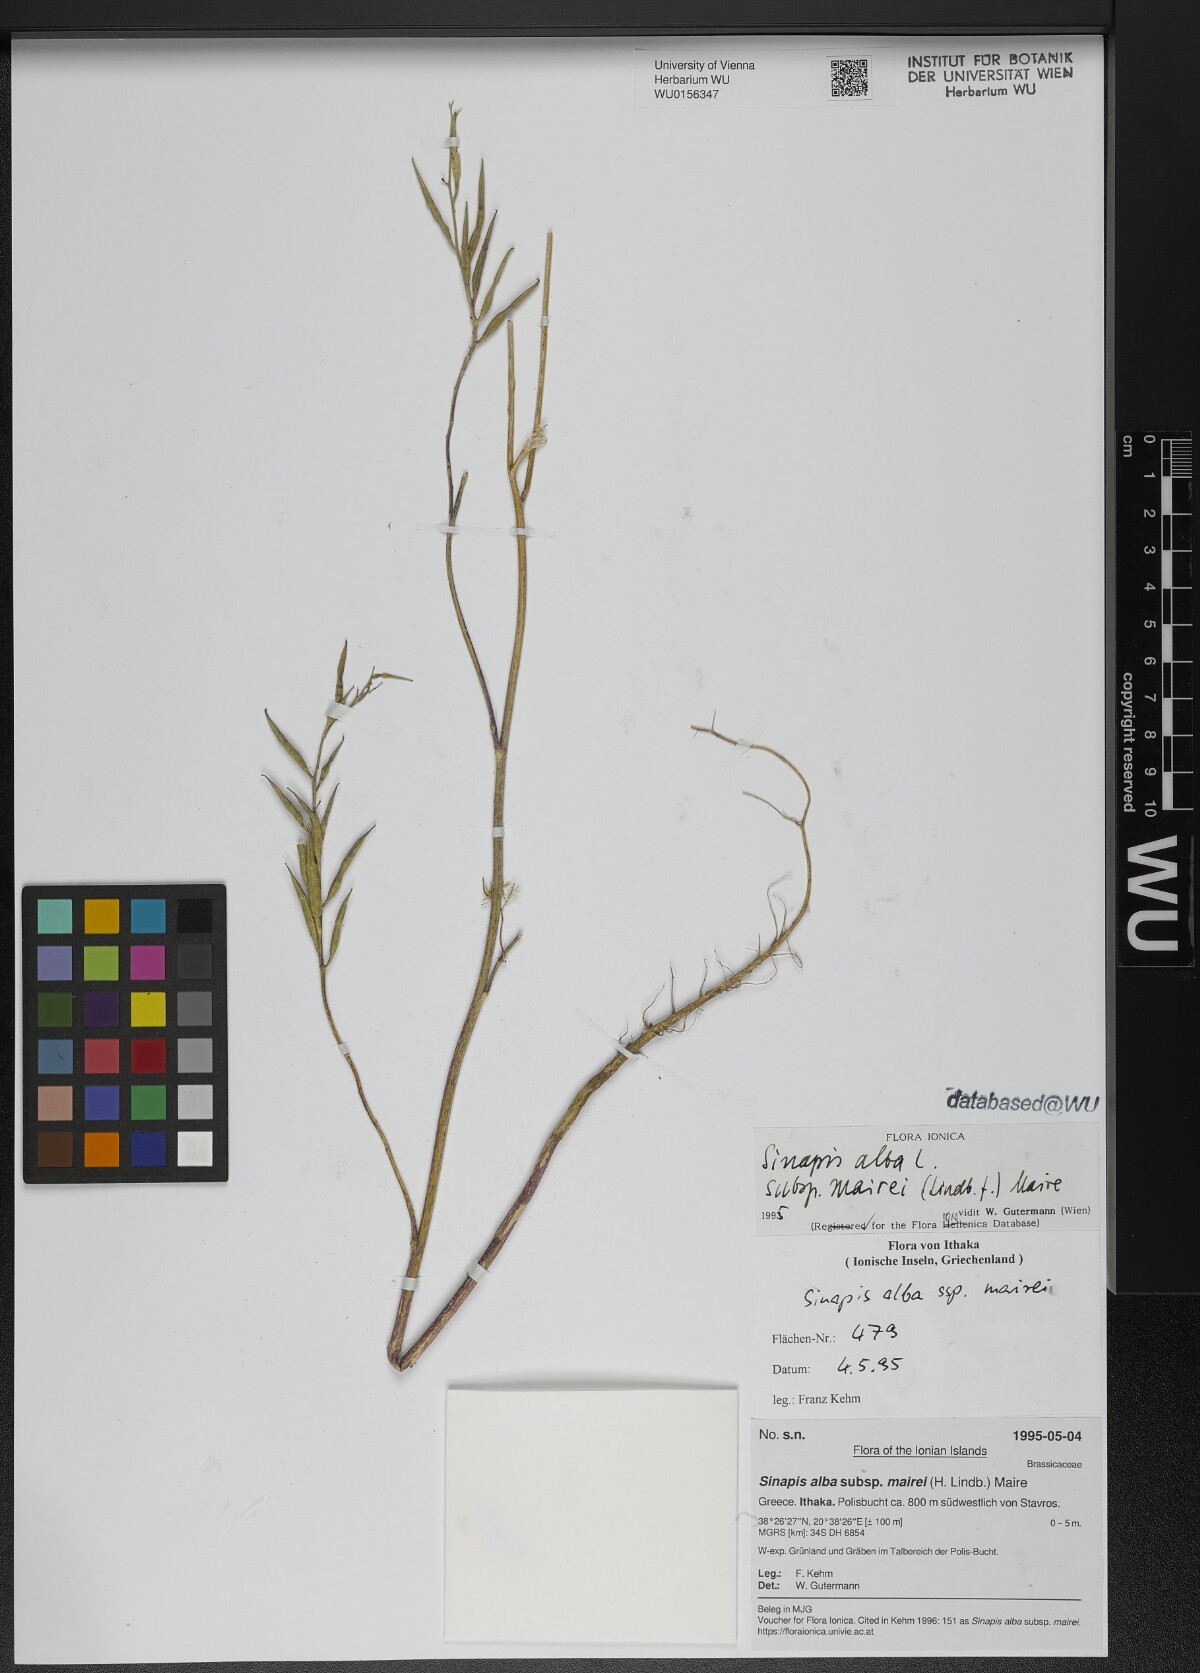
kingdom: Plantae
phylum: Tracheophyta
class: Magnoliopsida
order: Brassicales
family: Brassicaceae
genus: Sinapis
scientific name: Sinapis alba
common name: White mustard
